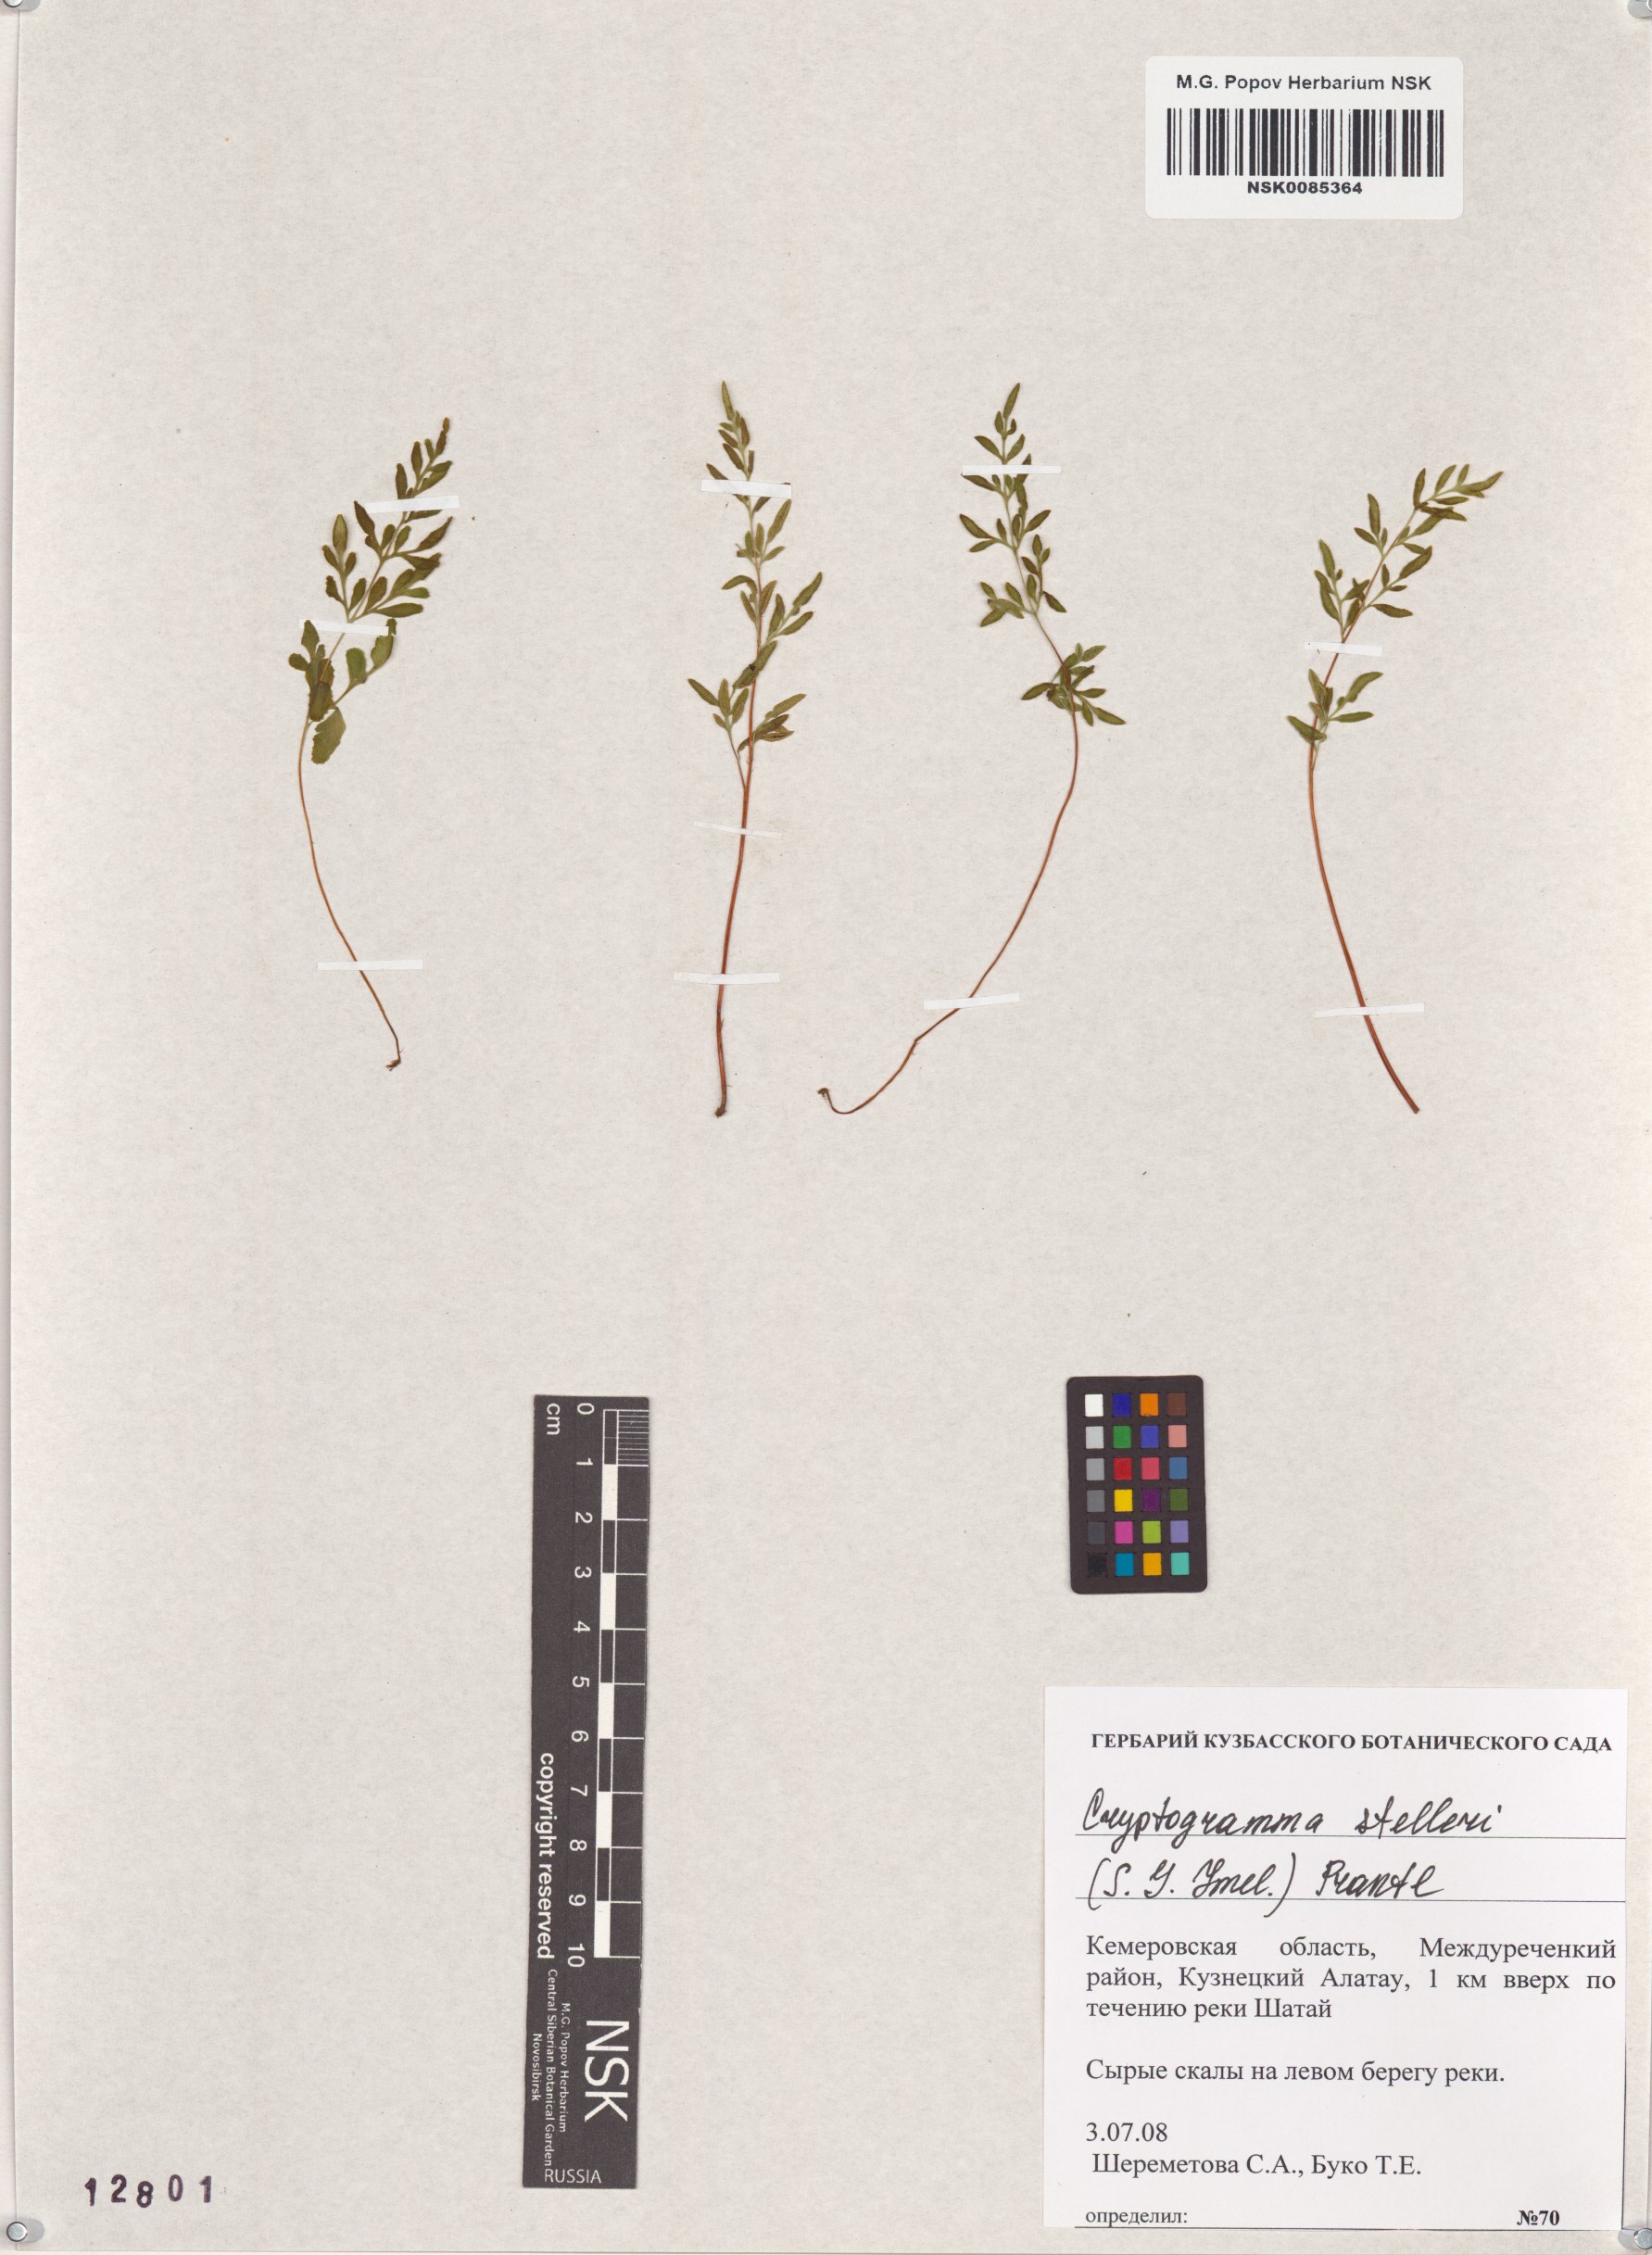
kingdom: Plantae
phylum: Tracheophyta
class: Polypodiopsida
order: Polypodiales
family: Pteridaceae
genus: Cryptogramma
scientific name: Cryptogramma stelleri
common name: Cliff-brake
